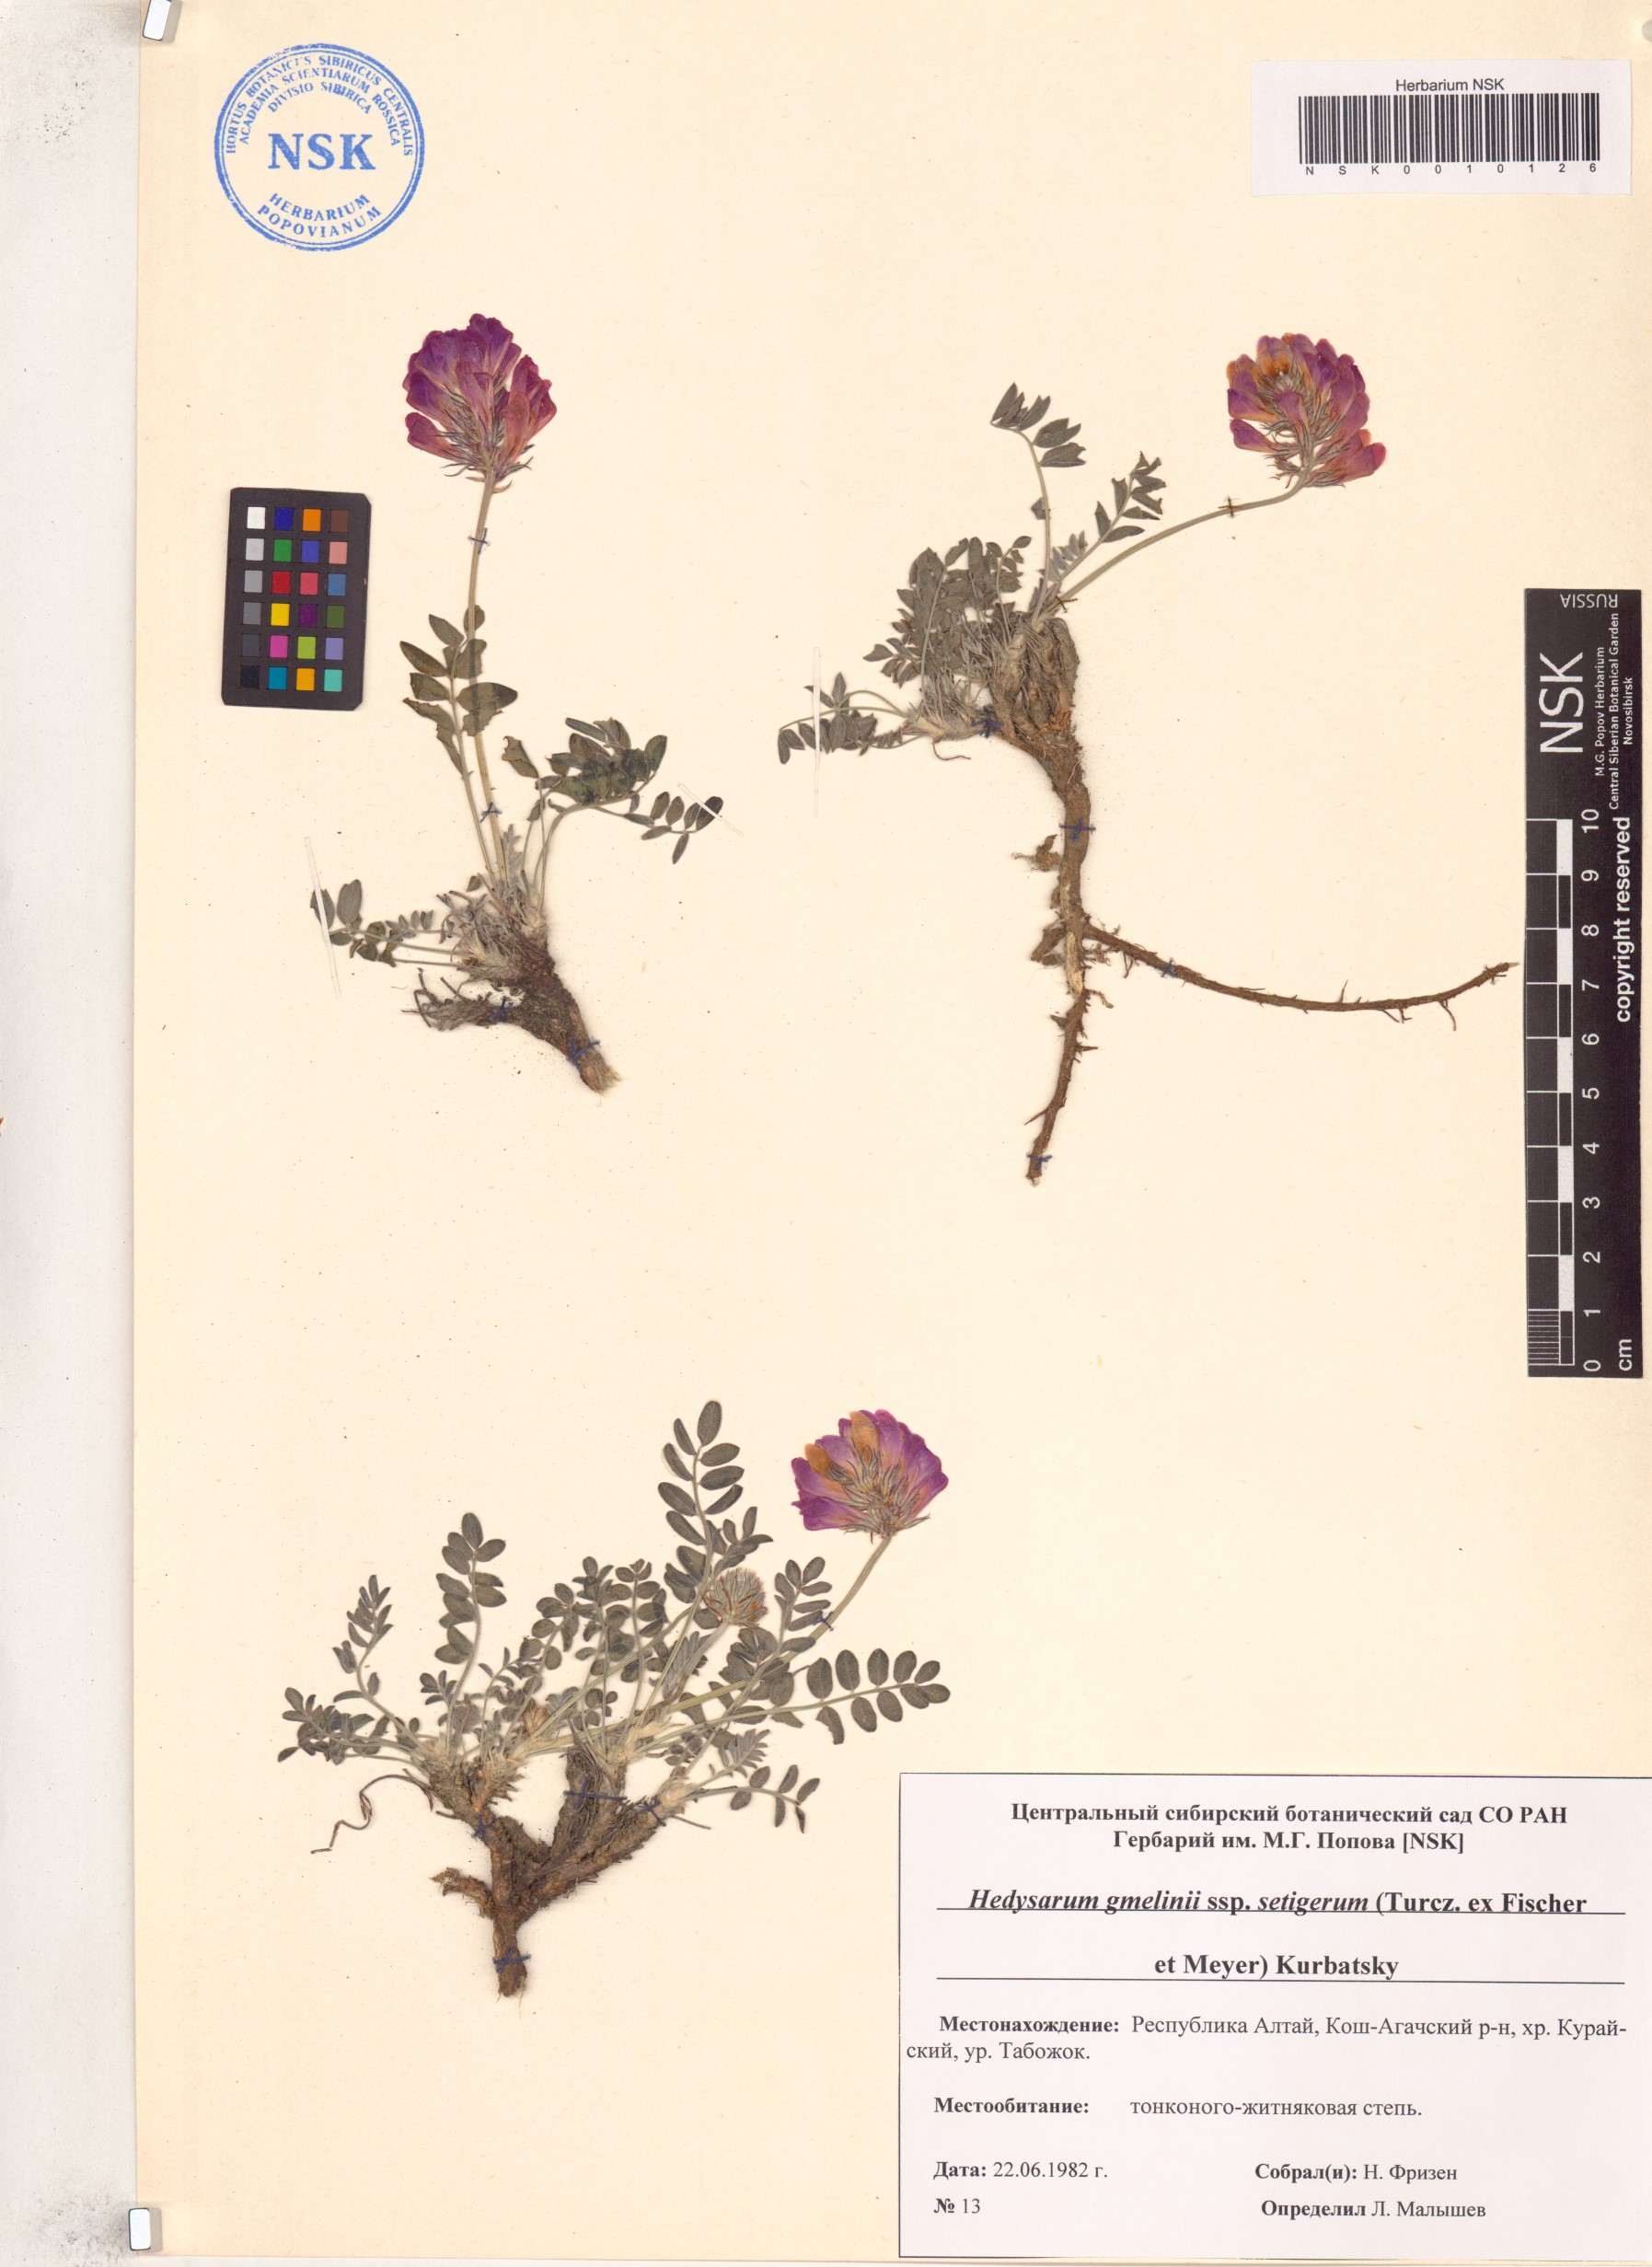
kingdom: Plantae
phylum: Tracheophyta
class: Magnoliopsida
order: Fabales
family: Fabaceae
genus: Hedysarum
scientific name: Hedysarum setigerum
